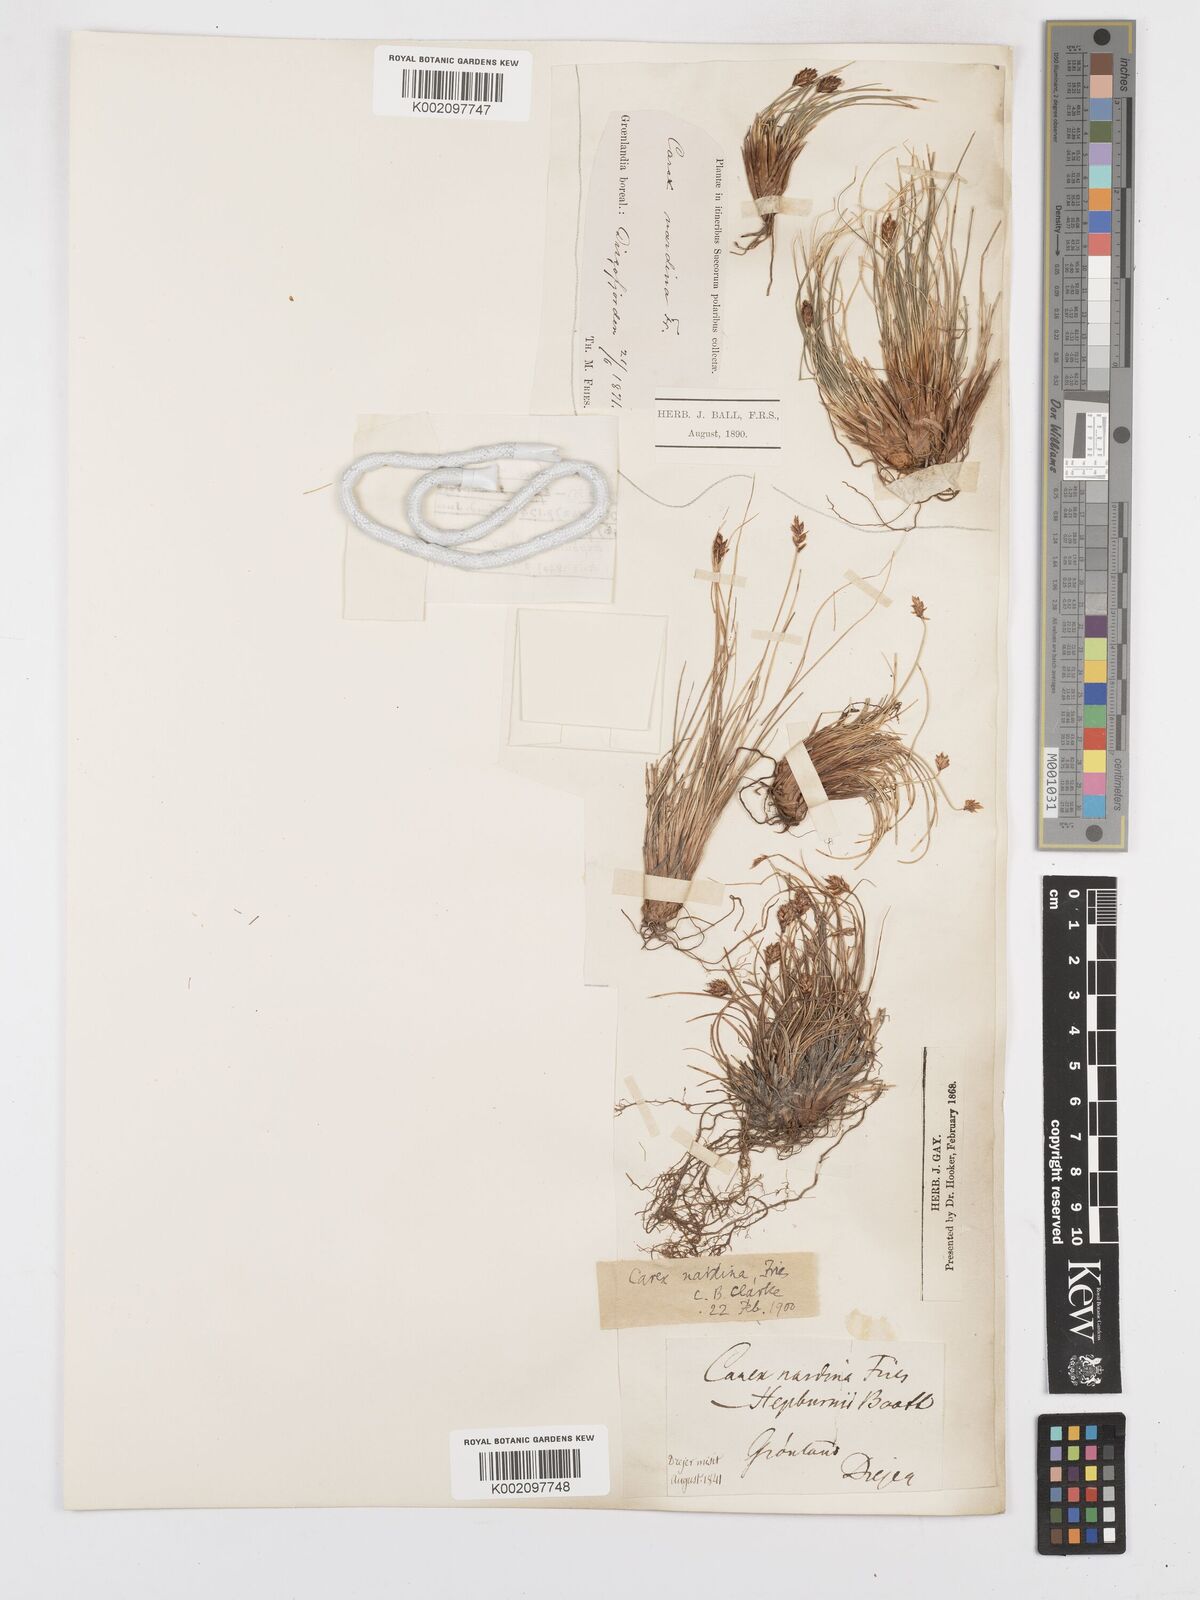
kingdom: Plantae
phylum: Tracheophyta
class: Liliopsida
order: Poales
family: Cyperaceae
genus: Carex
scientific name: Carex nardina
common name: Nard sedge
